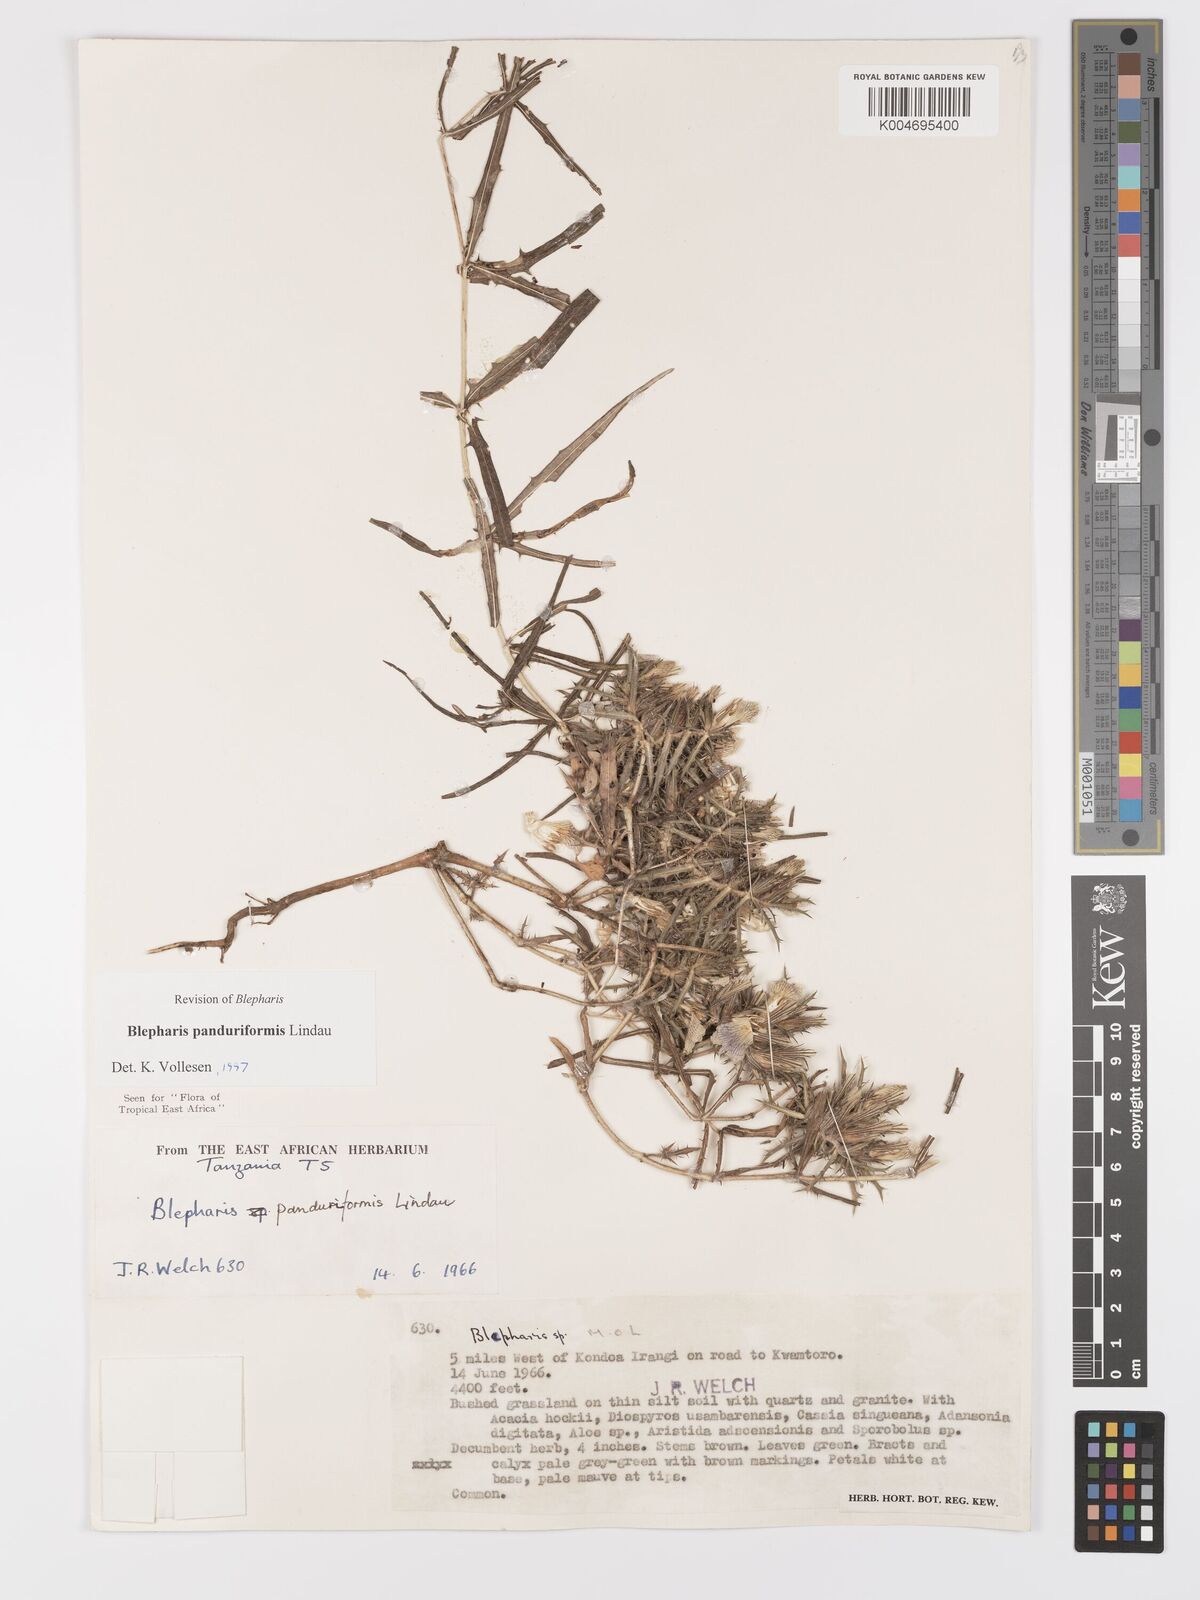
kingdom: Plantae
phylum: Tracheophyta
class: Magnoliopsida
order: Lamiales
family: Acanthaceae
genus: Blepharis
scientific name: Blepharis panduriformis
